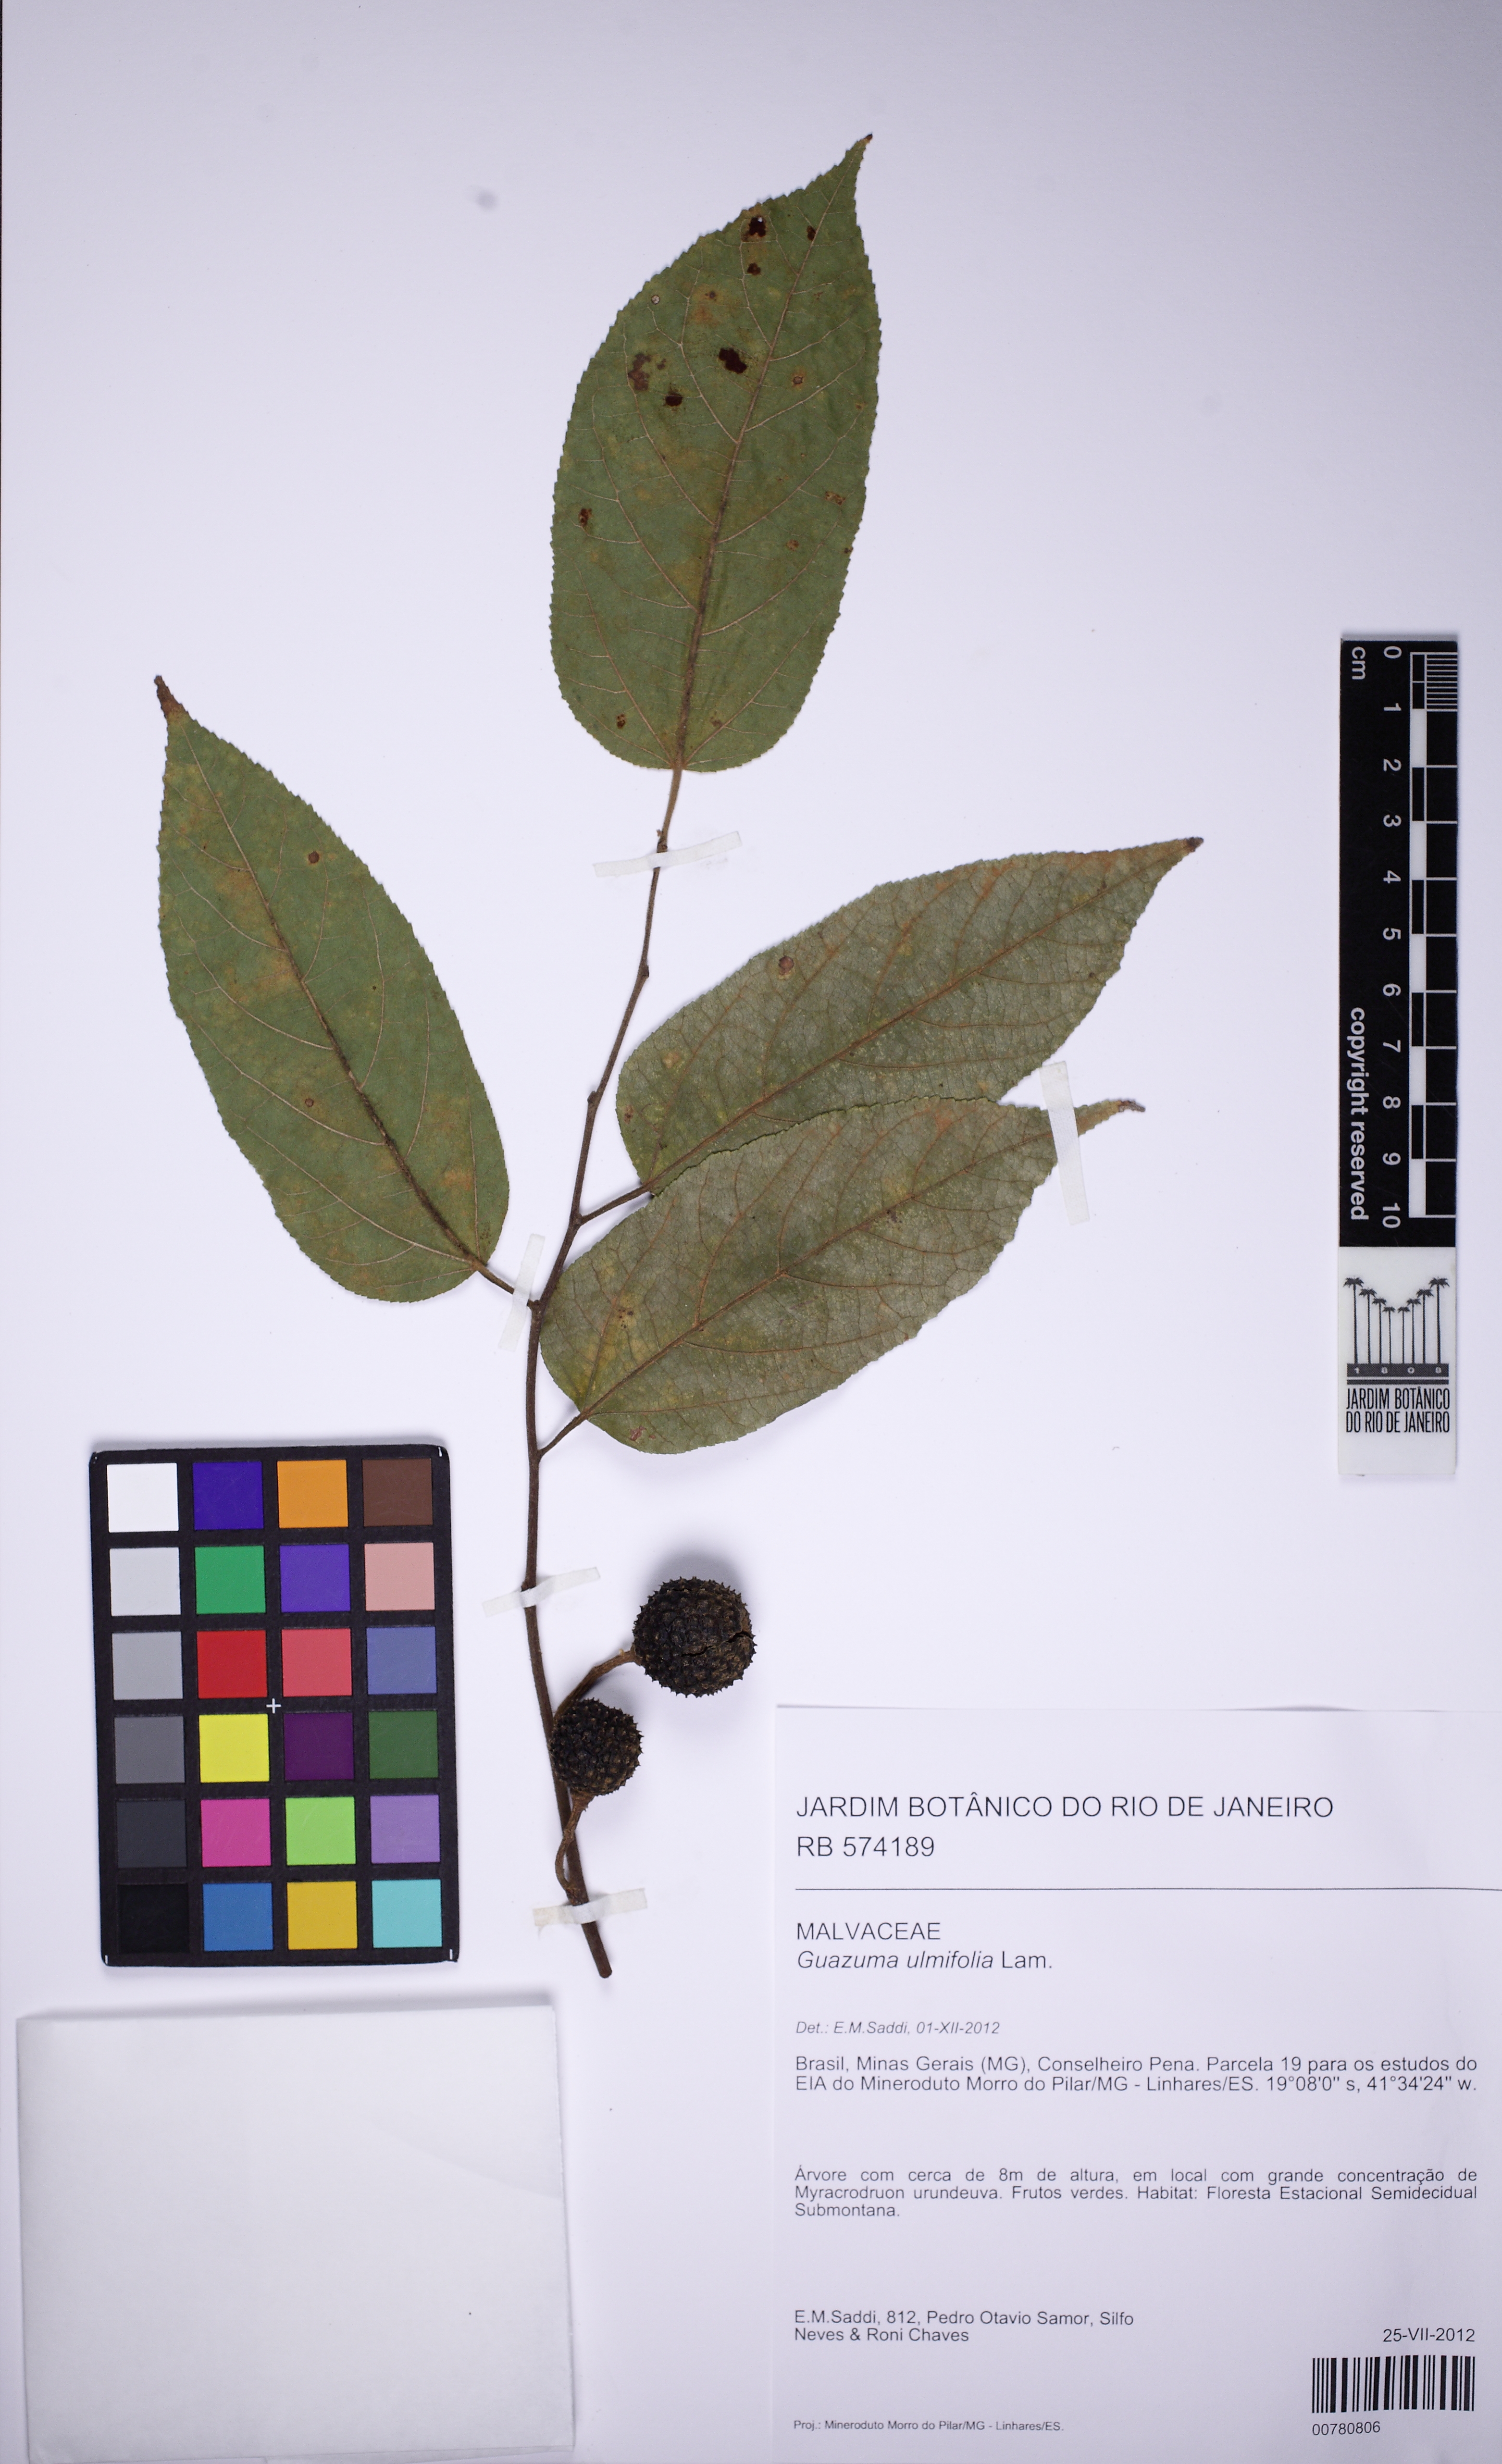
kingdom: Plantae
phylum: Tracheophyta
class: Magnoliopsida
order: Malvales
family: Malvaceae
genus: Guazuma
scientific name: Guazuma ulmifolia
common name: Bastard-cedar
